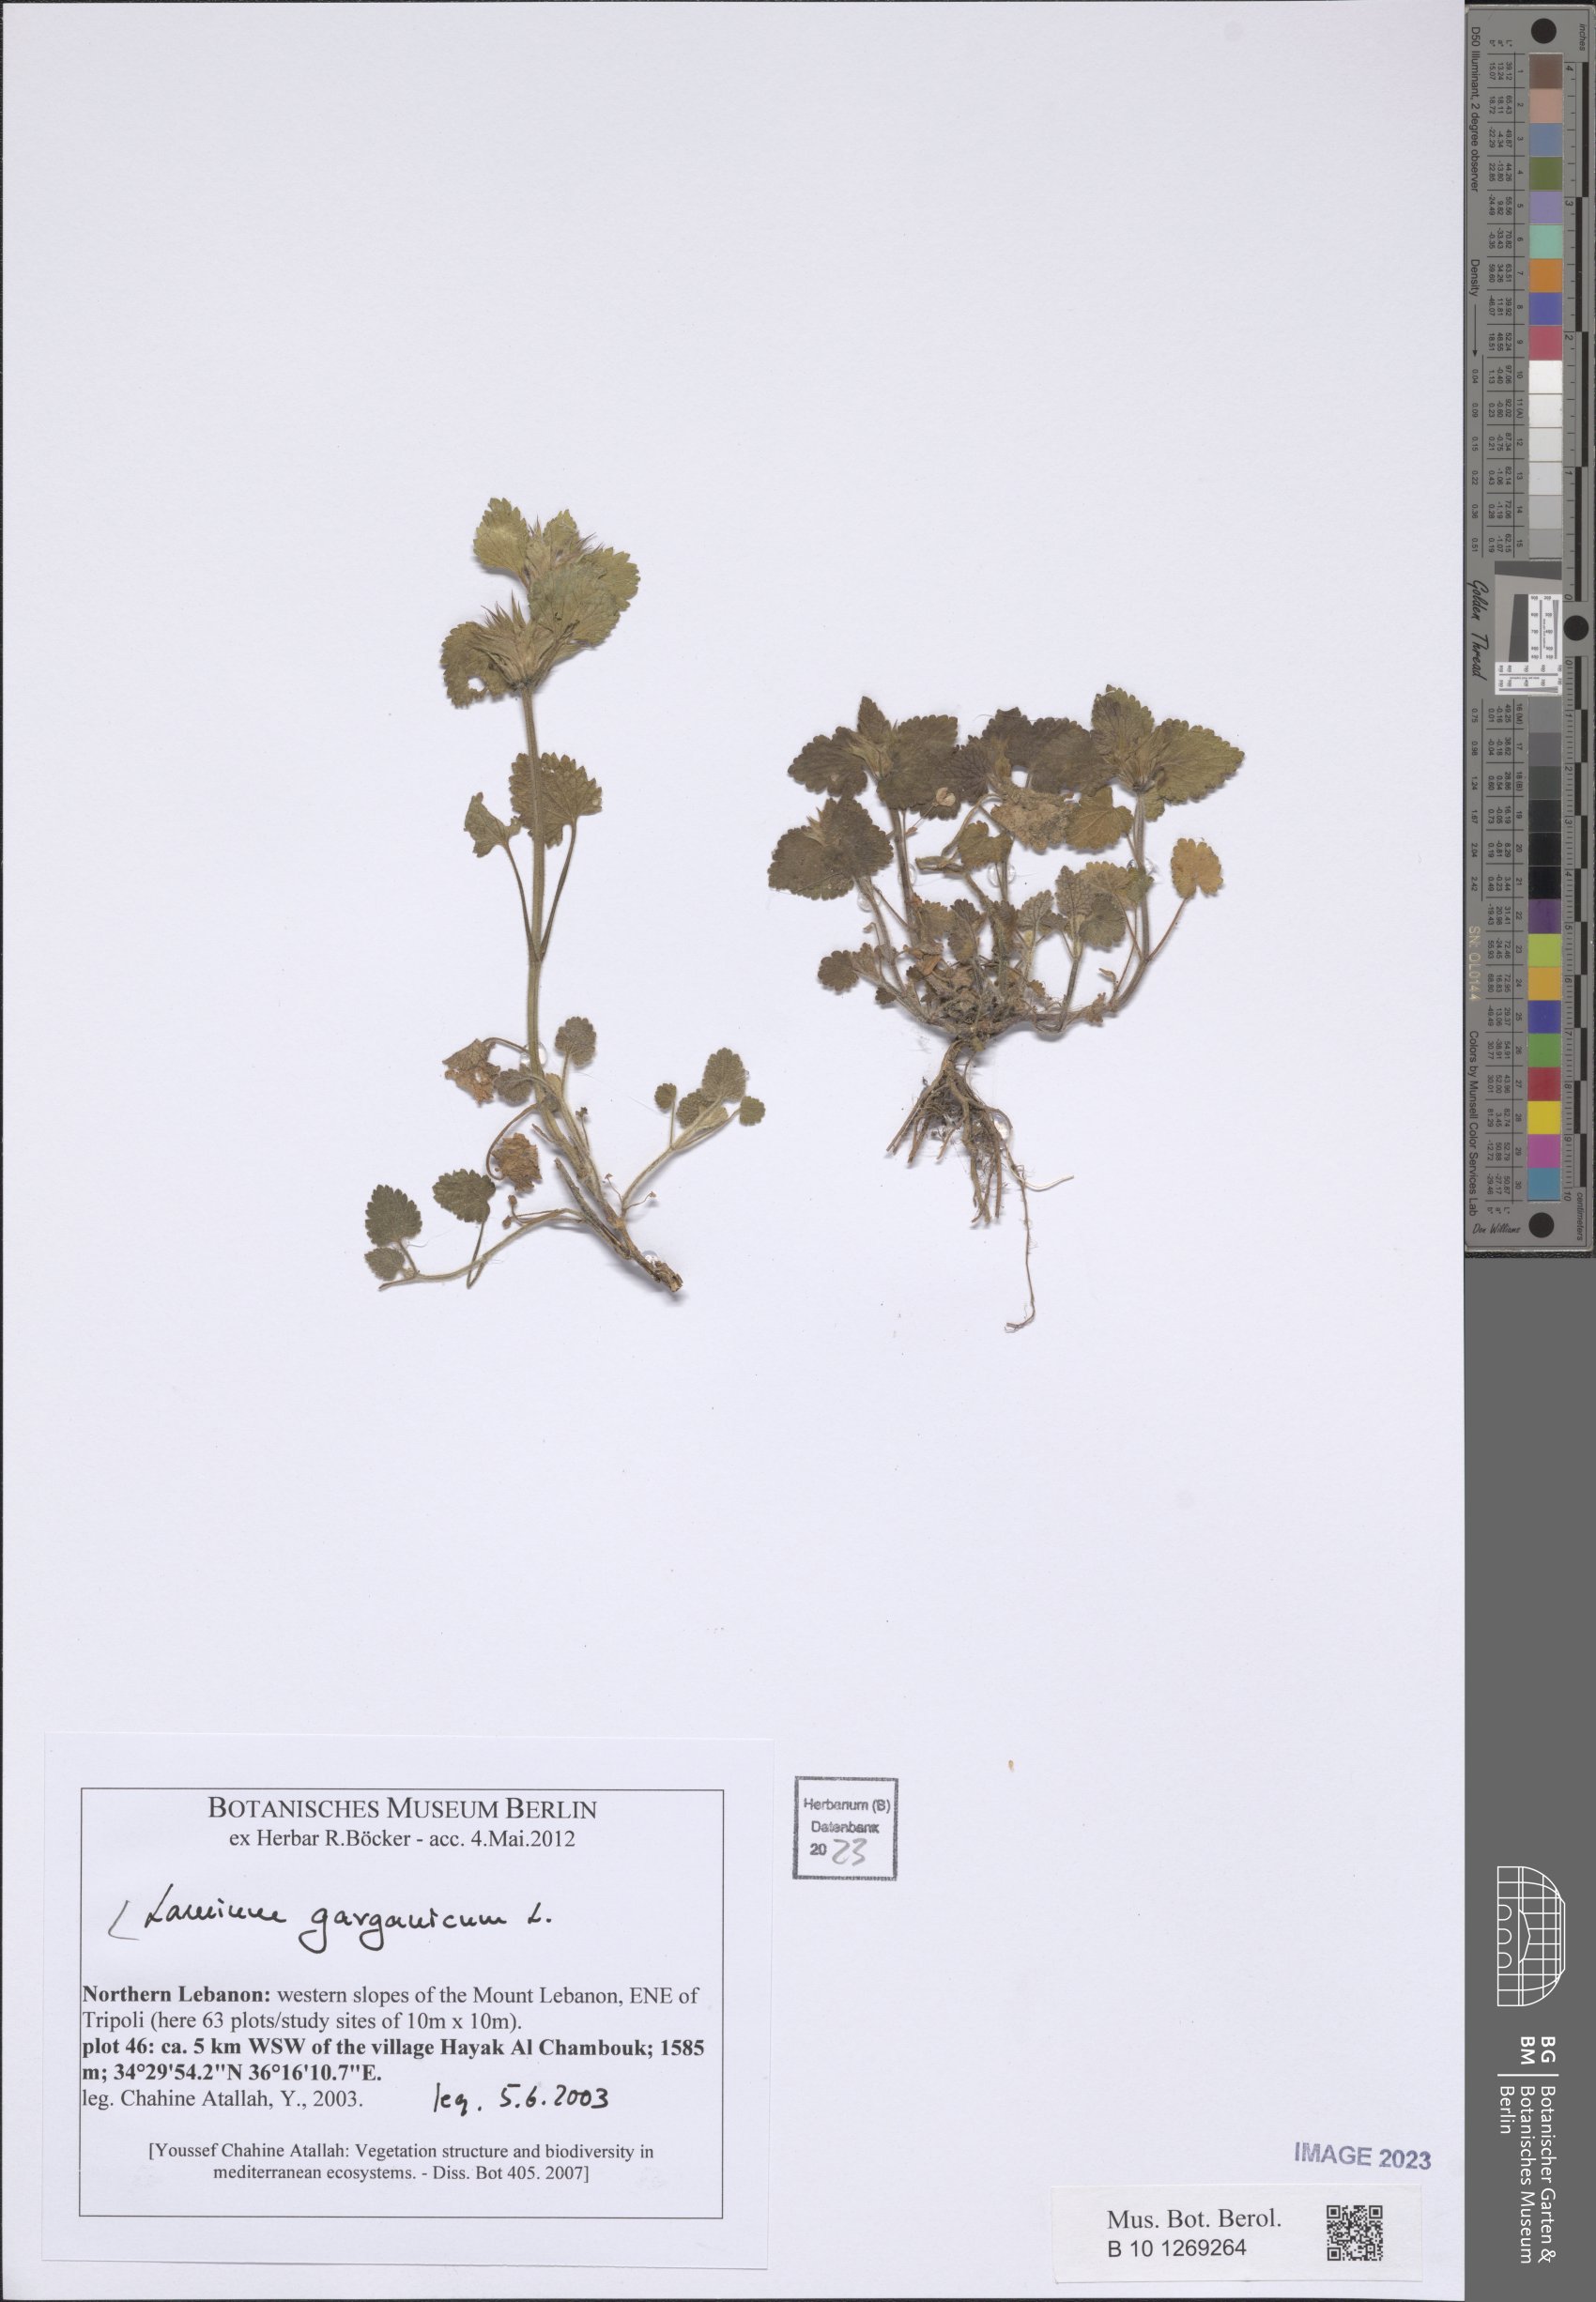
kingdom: Plantae
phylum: Tracheophyta
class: Magnoliopsida
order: Lamiales
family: Lamiaceae
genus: Lamium
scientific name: Lamium garganicum
